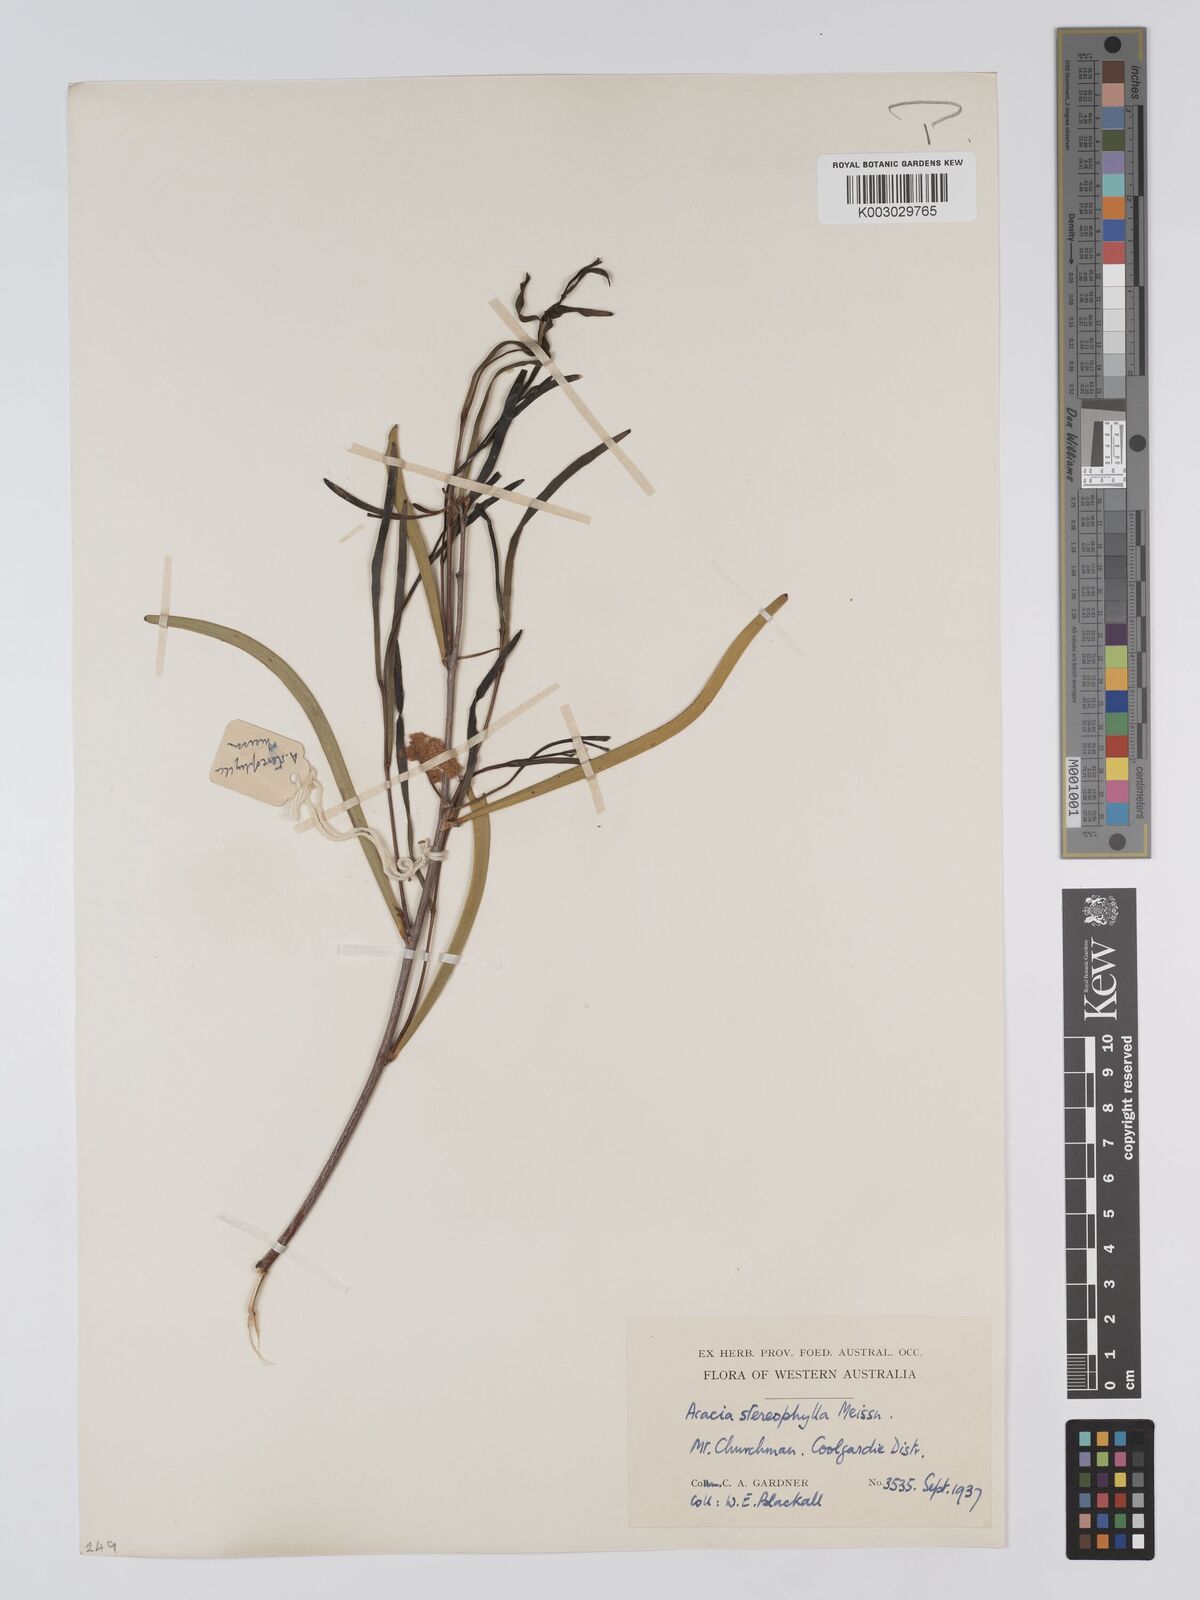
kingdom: Plantae
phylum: Tracheophyta
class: Magnoliopsida
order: Fabales
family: Fabaceae
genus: Acacia
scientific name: Acacia stereophylla
